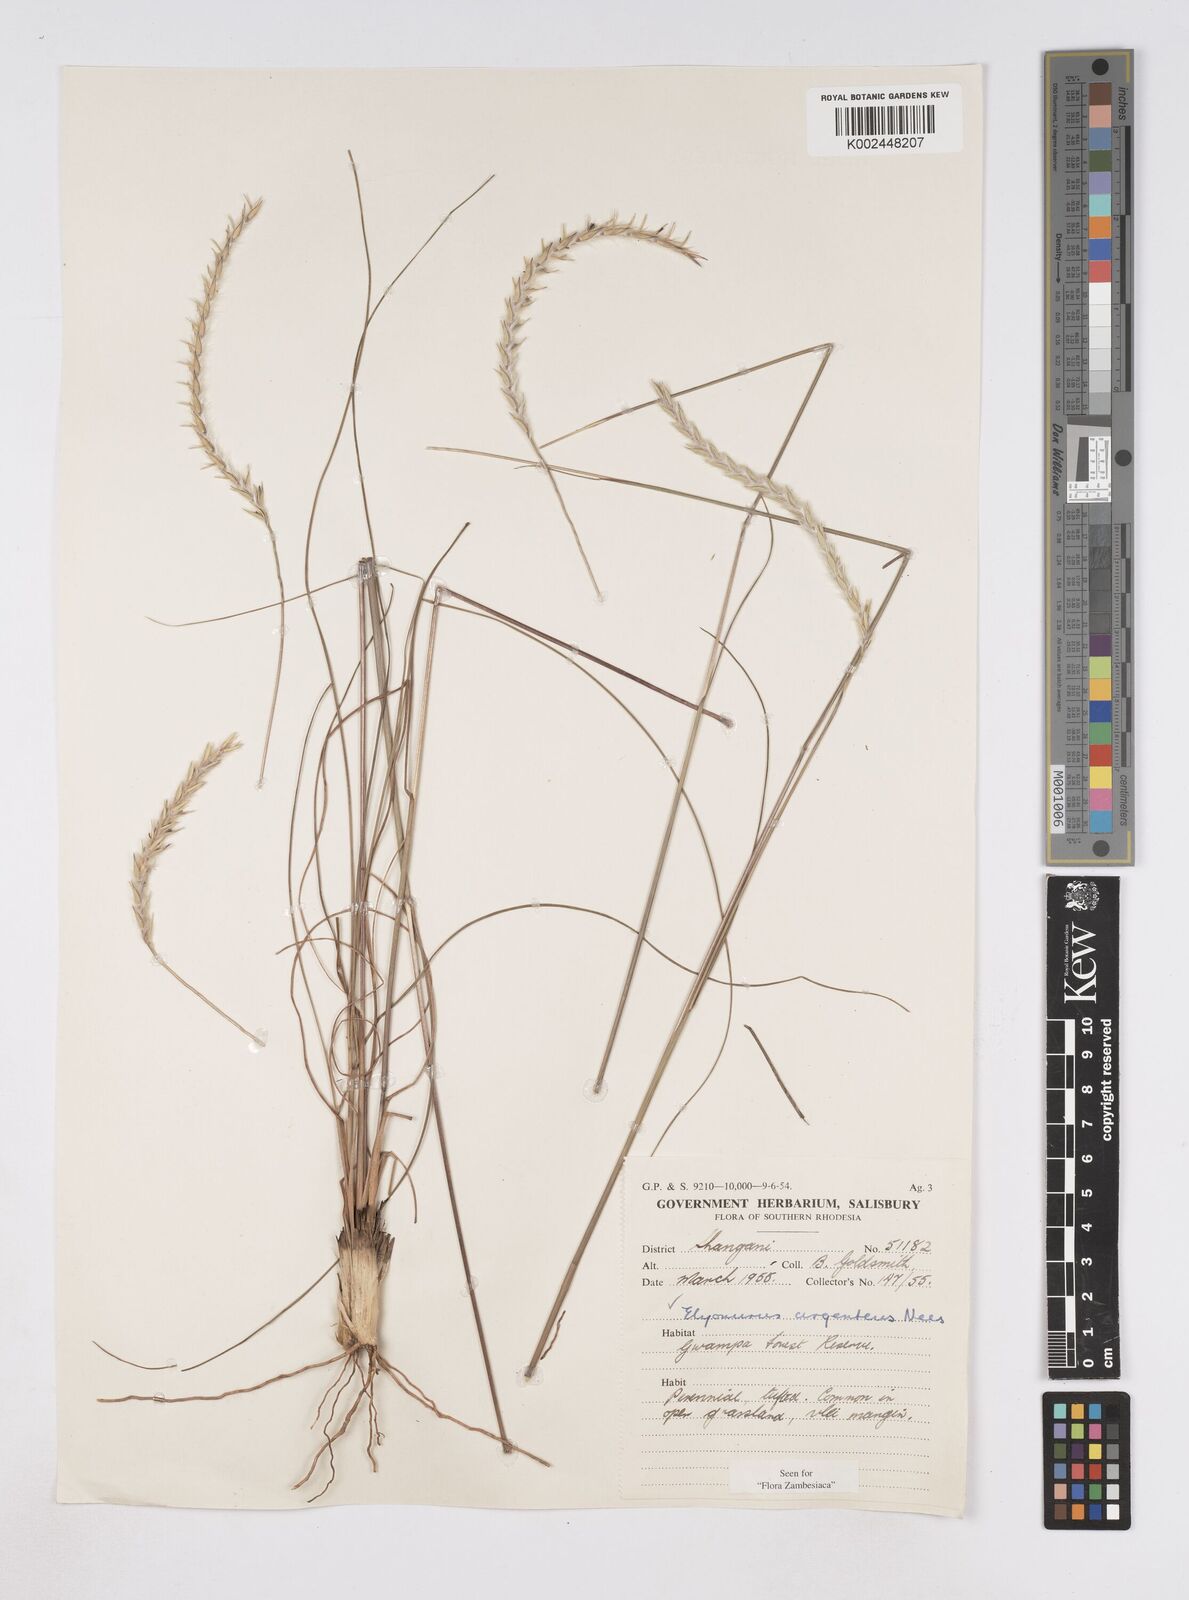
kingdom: Plantae
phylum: Tracheophyta
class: Liliopsida
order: Poales
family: Poaceae
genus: Elionurus
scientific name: Elionurus muticus
